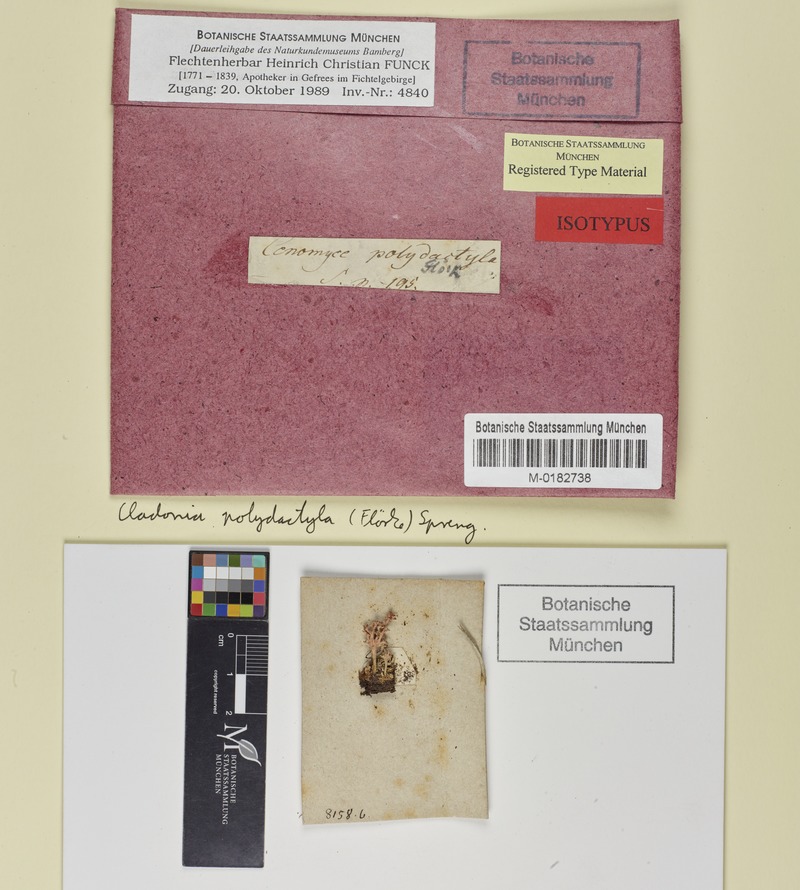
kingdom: Fungi
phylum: Ascomycota
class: Lecanoromycetes
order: Lecanorales
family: Cladoniaceae
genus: Cladonia
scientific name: Cladonia polydactyla
